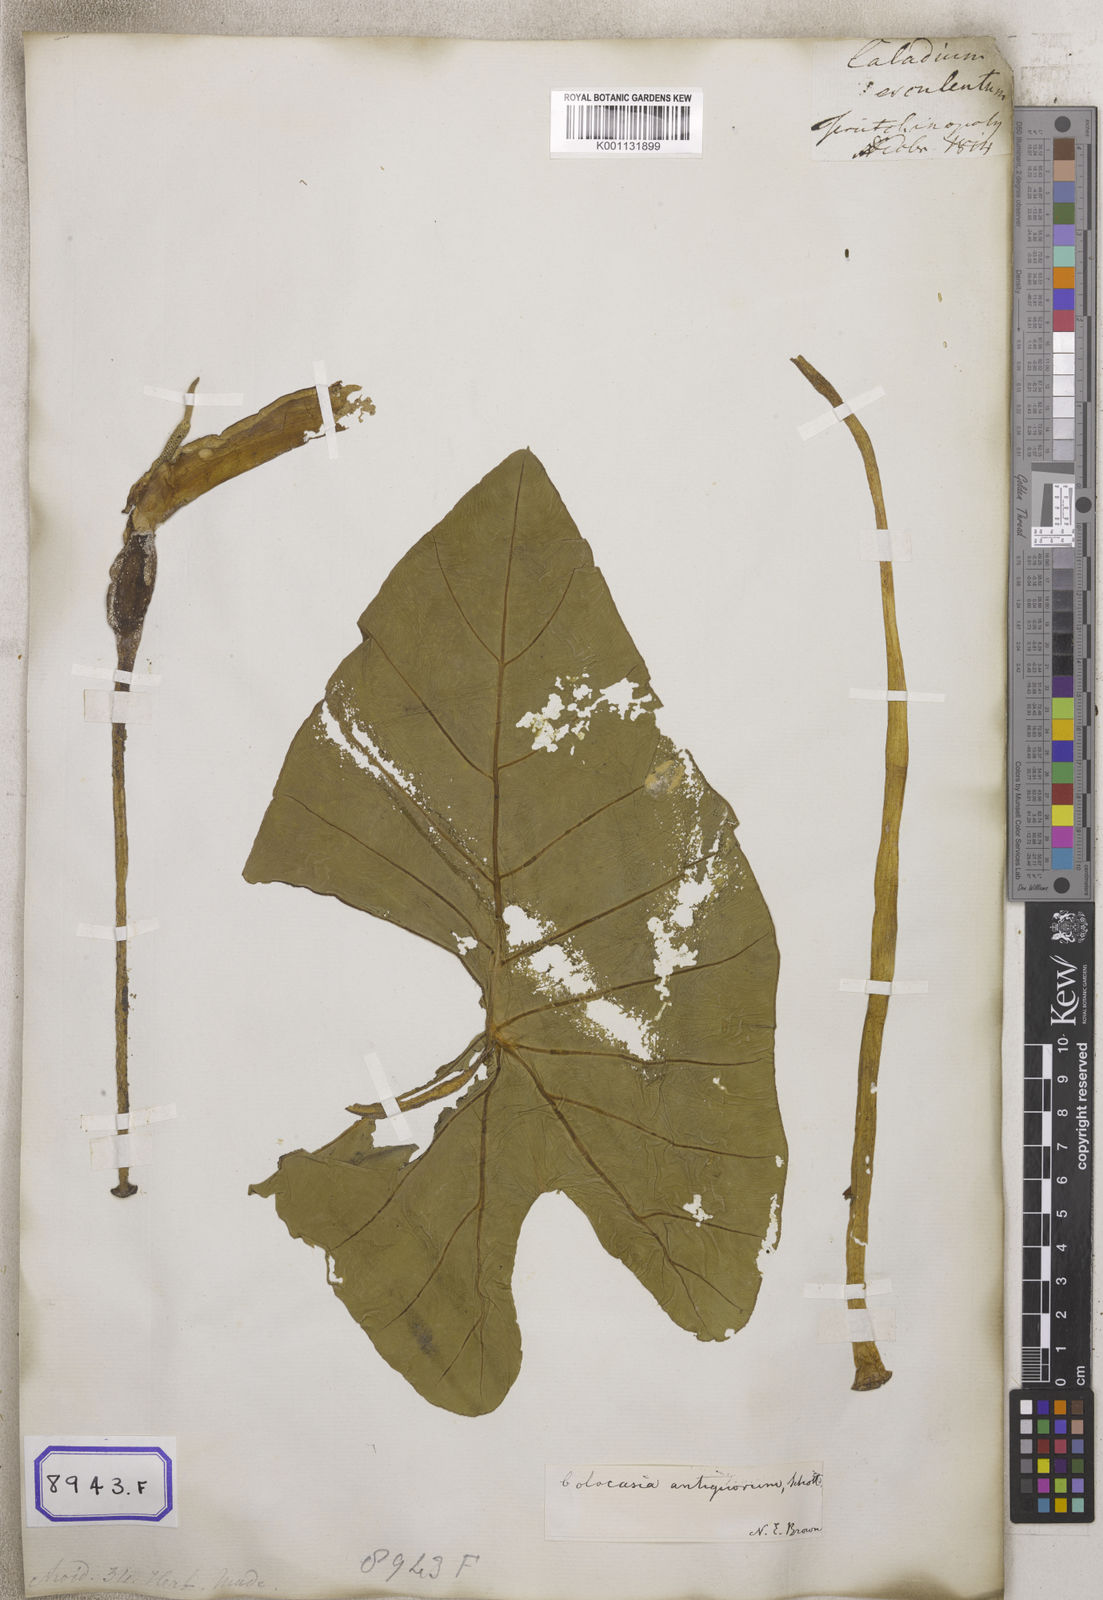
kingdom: Plantae
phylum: Tracheophyta
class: Liliopsida
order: Alismatales
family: Araceae
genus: Colocasia
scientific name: Colocasia spec
